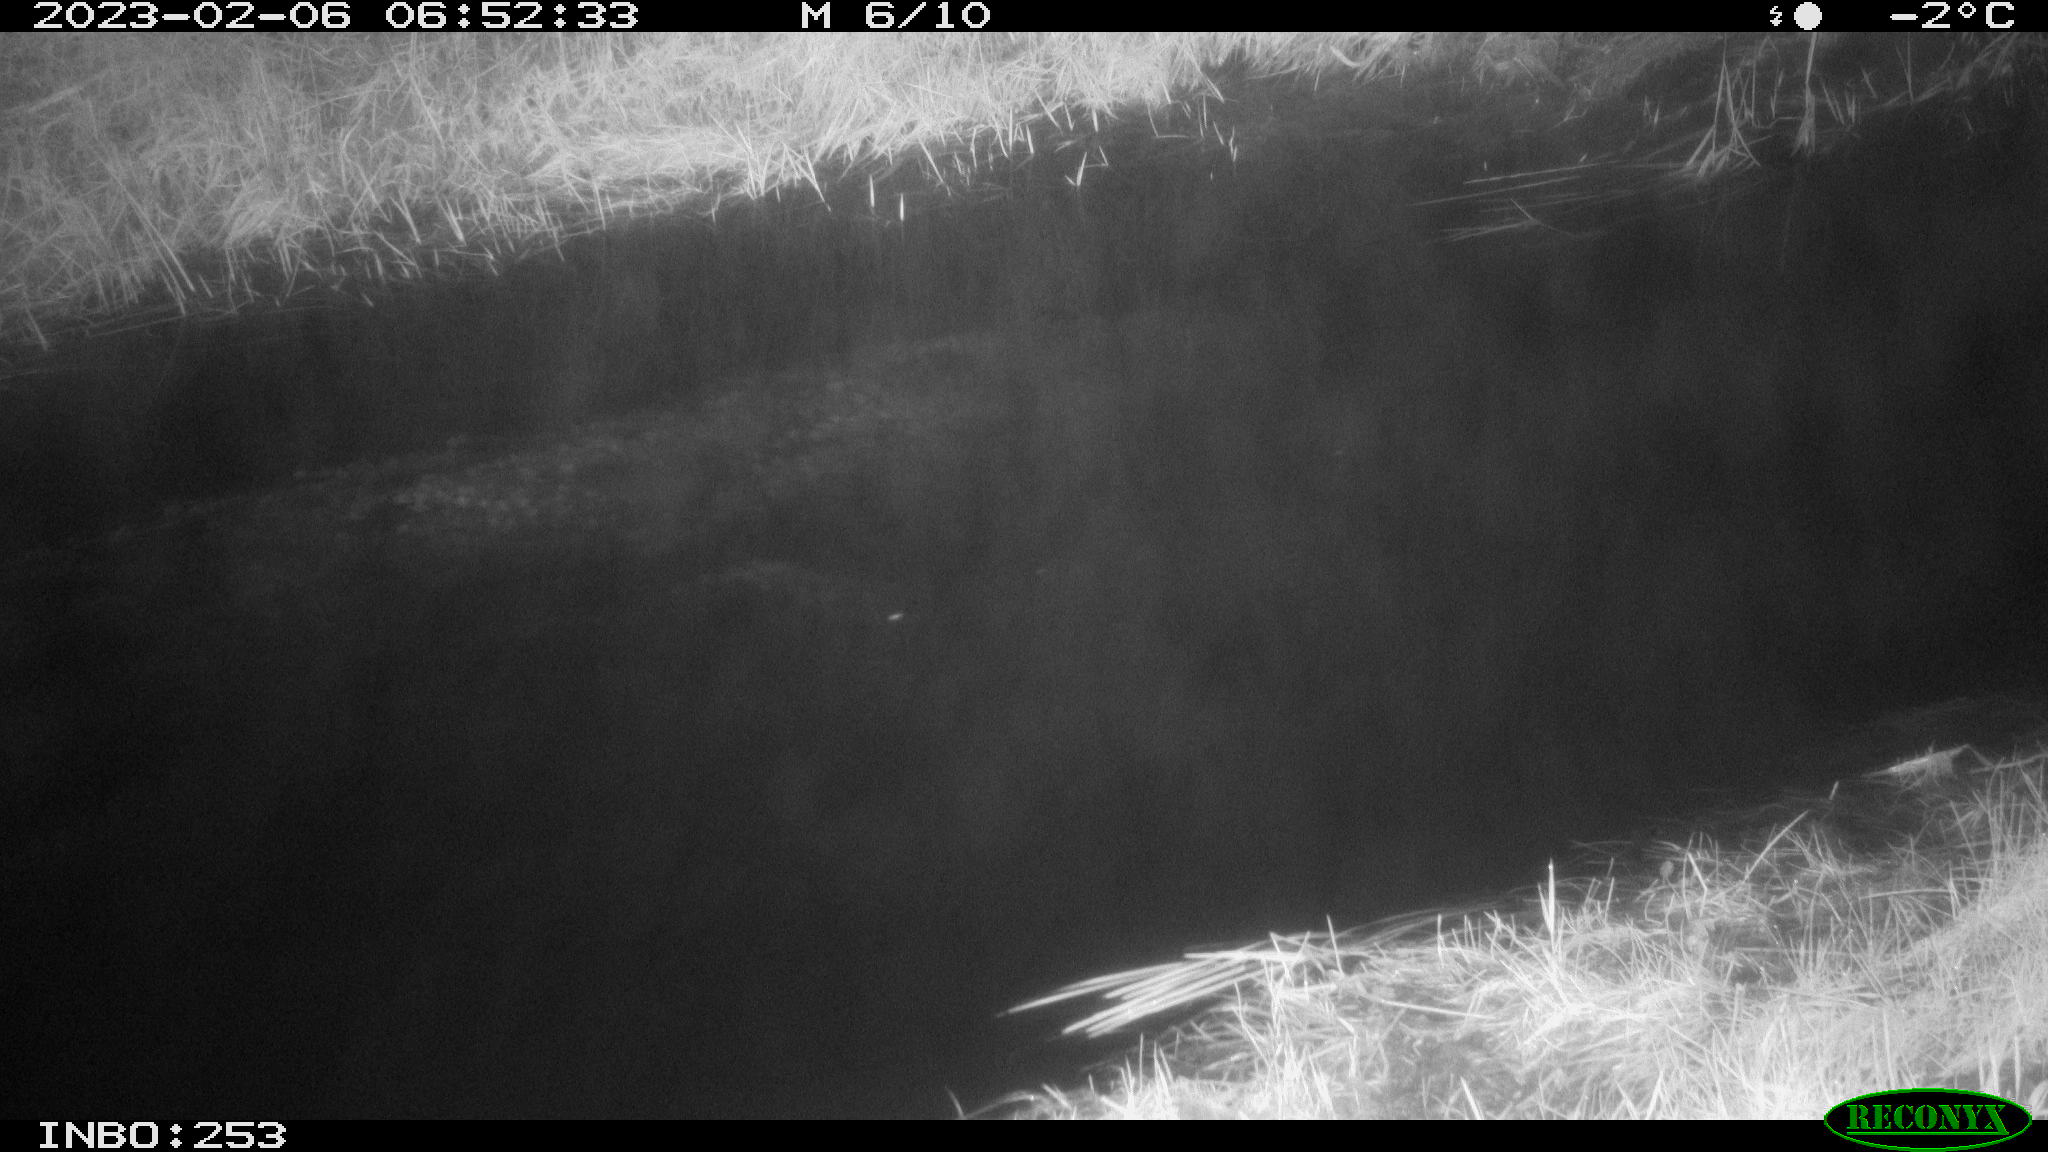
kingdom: Animalia
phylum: Chordata
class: Aves
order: Anseriformes
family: Anatidae
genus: Anas
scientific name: Anas
